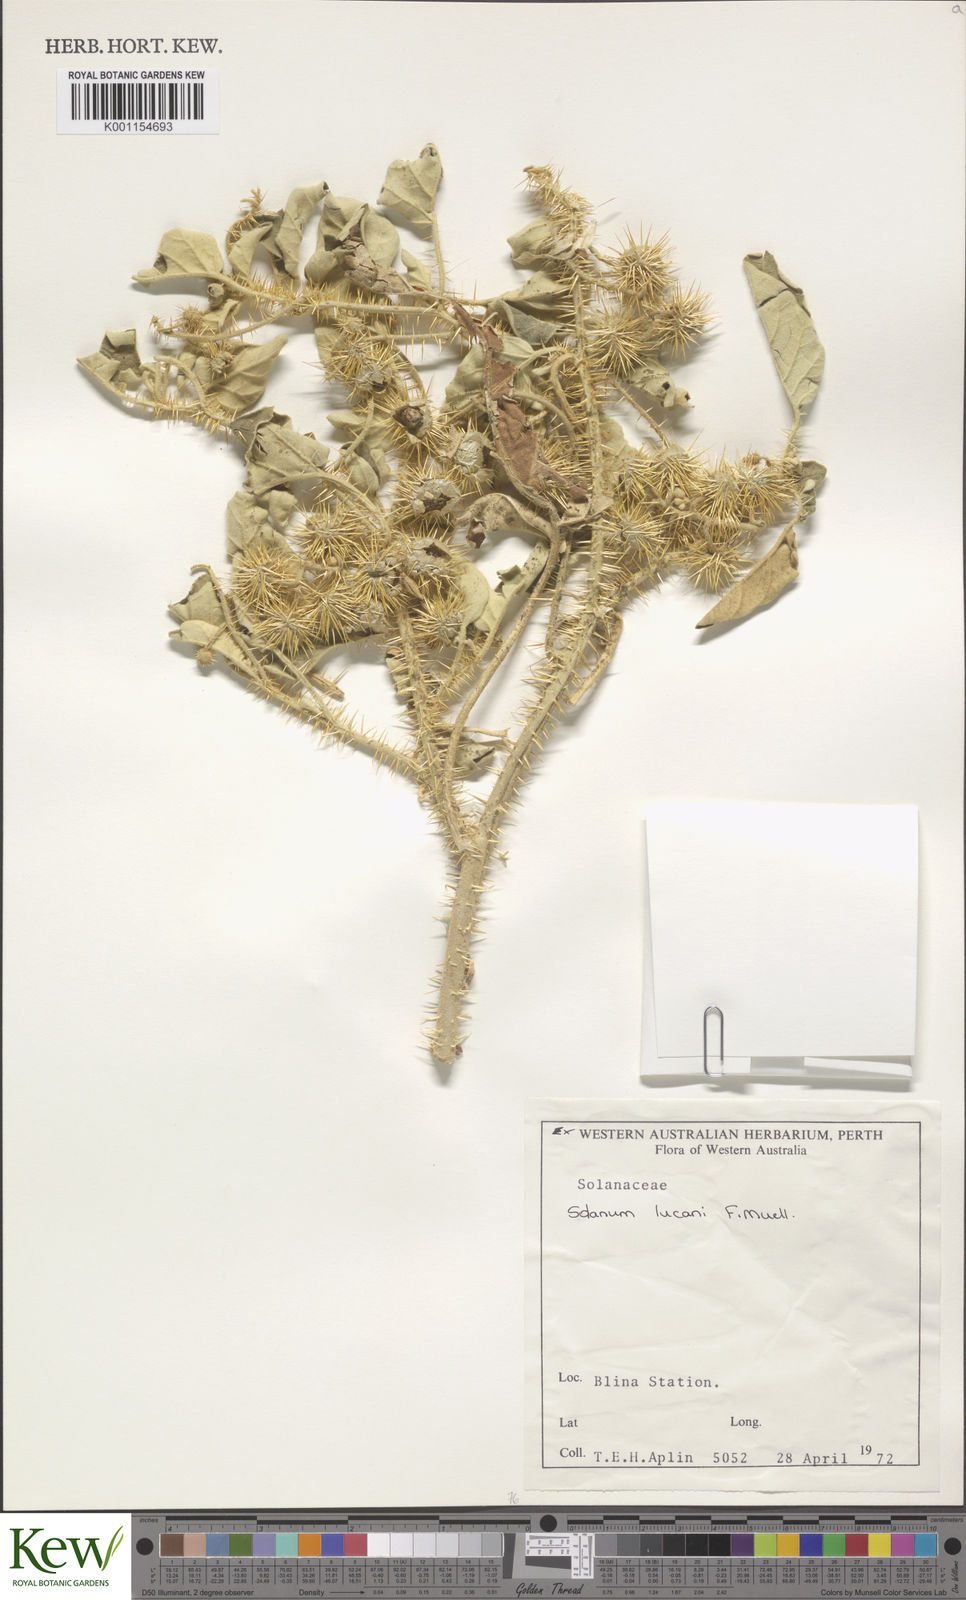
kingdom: Plantae
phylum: Tracheophyta
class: Magnoliopsida
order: Solanales
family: Solanaceae
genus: Solanum
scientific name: Solanum lucani
